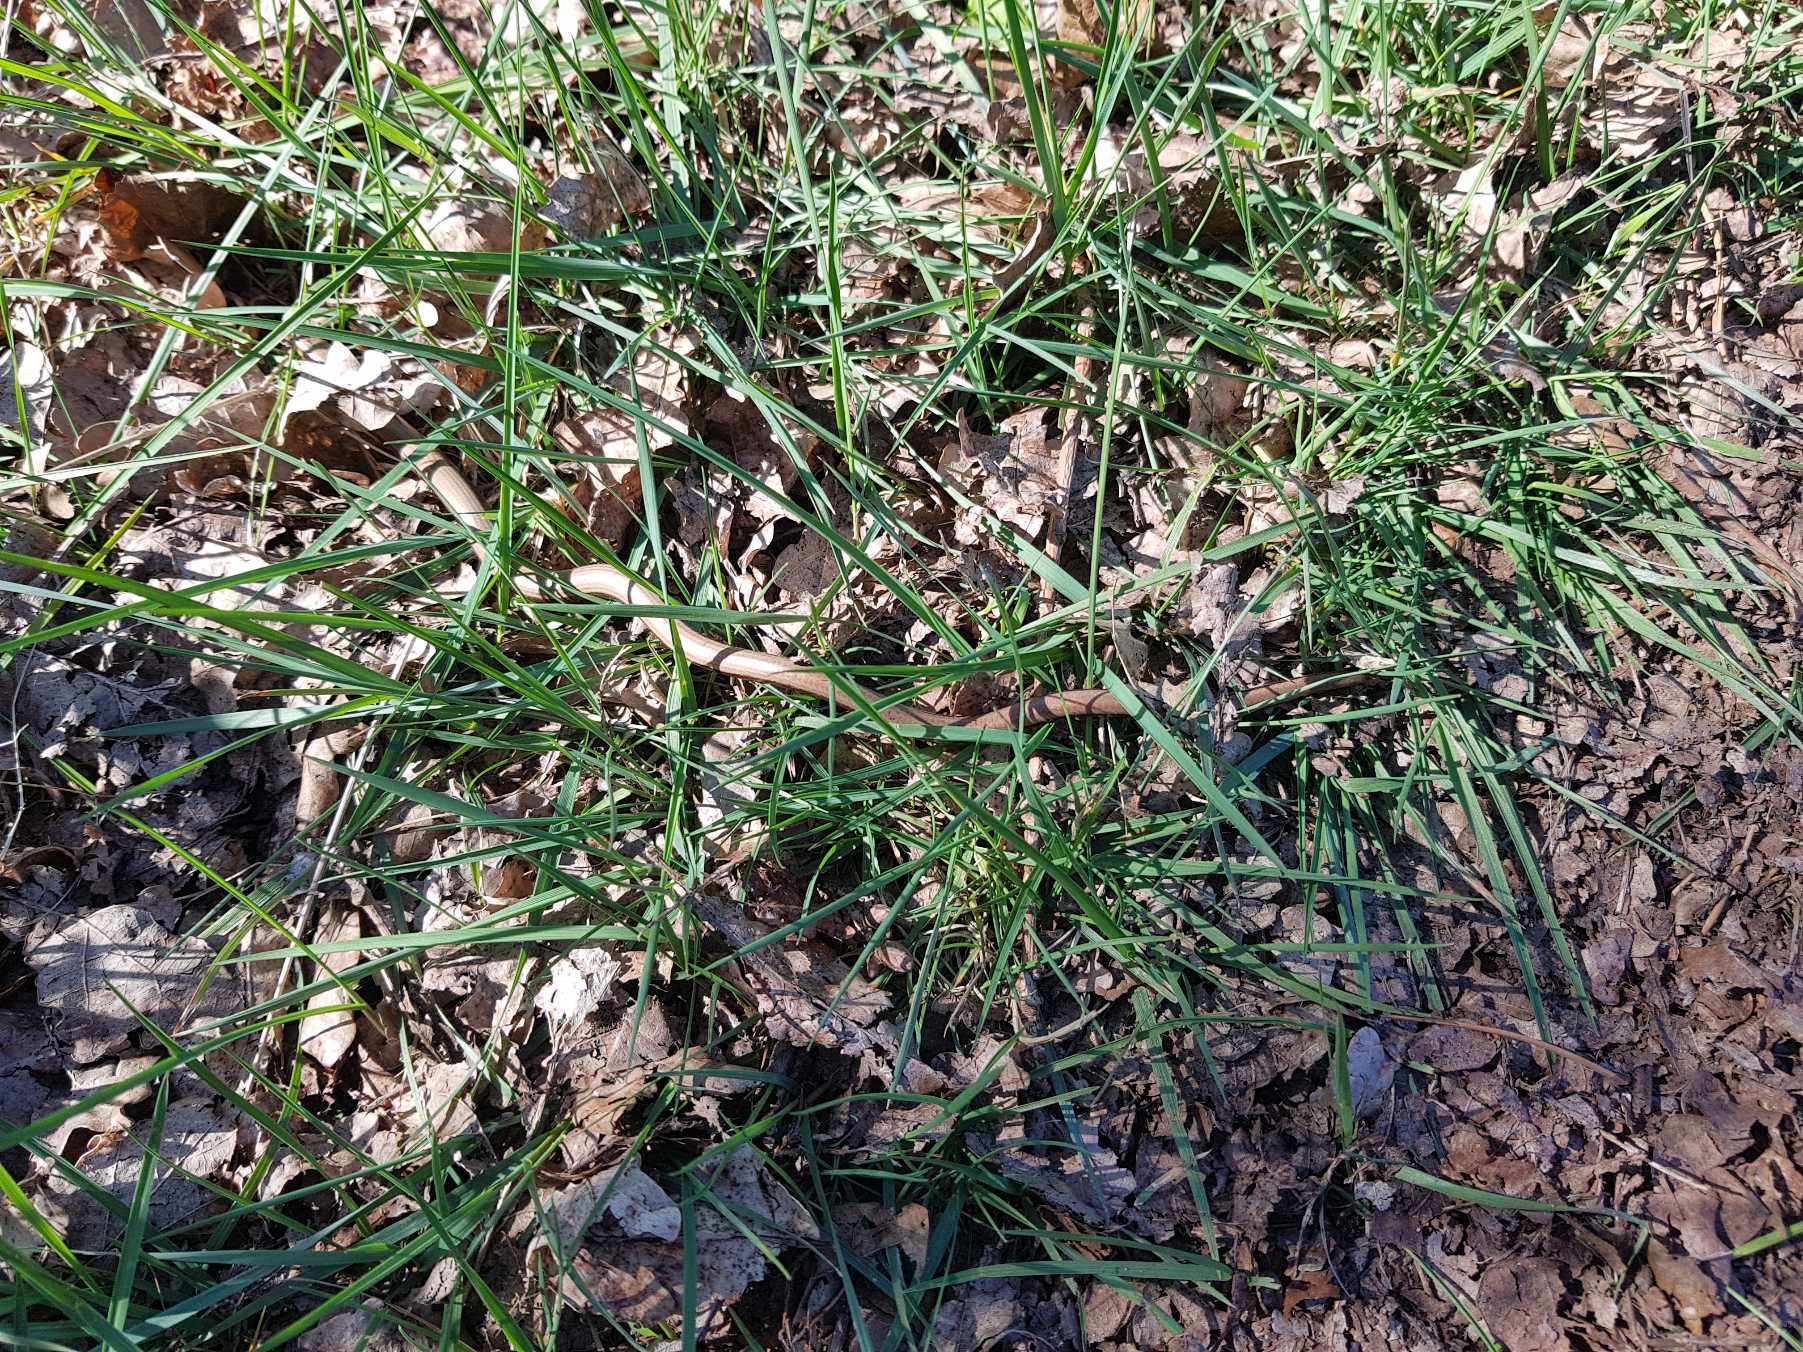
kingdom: Animalia
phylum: Chordata
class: Squamata
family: Anguidae
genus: Anguis
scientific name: Anguis fragilis
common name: Stålorm
